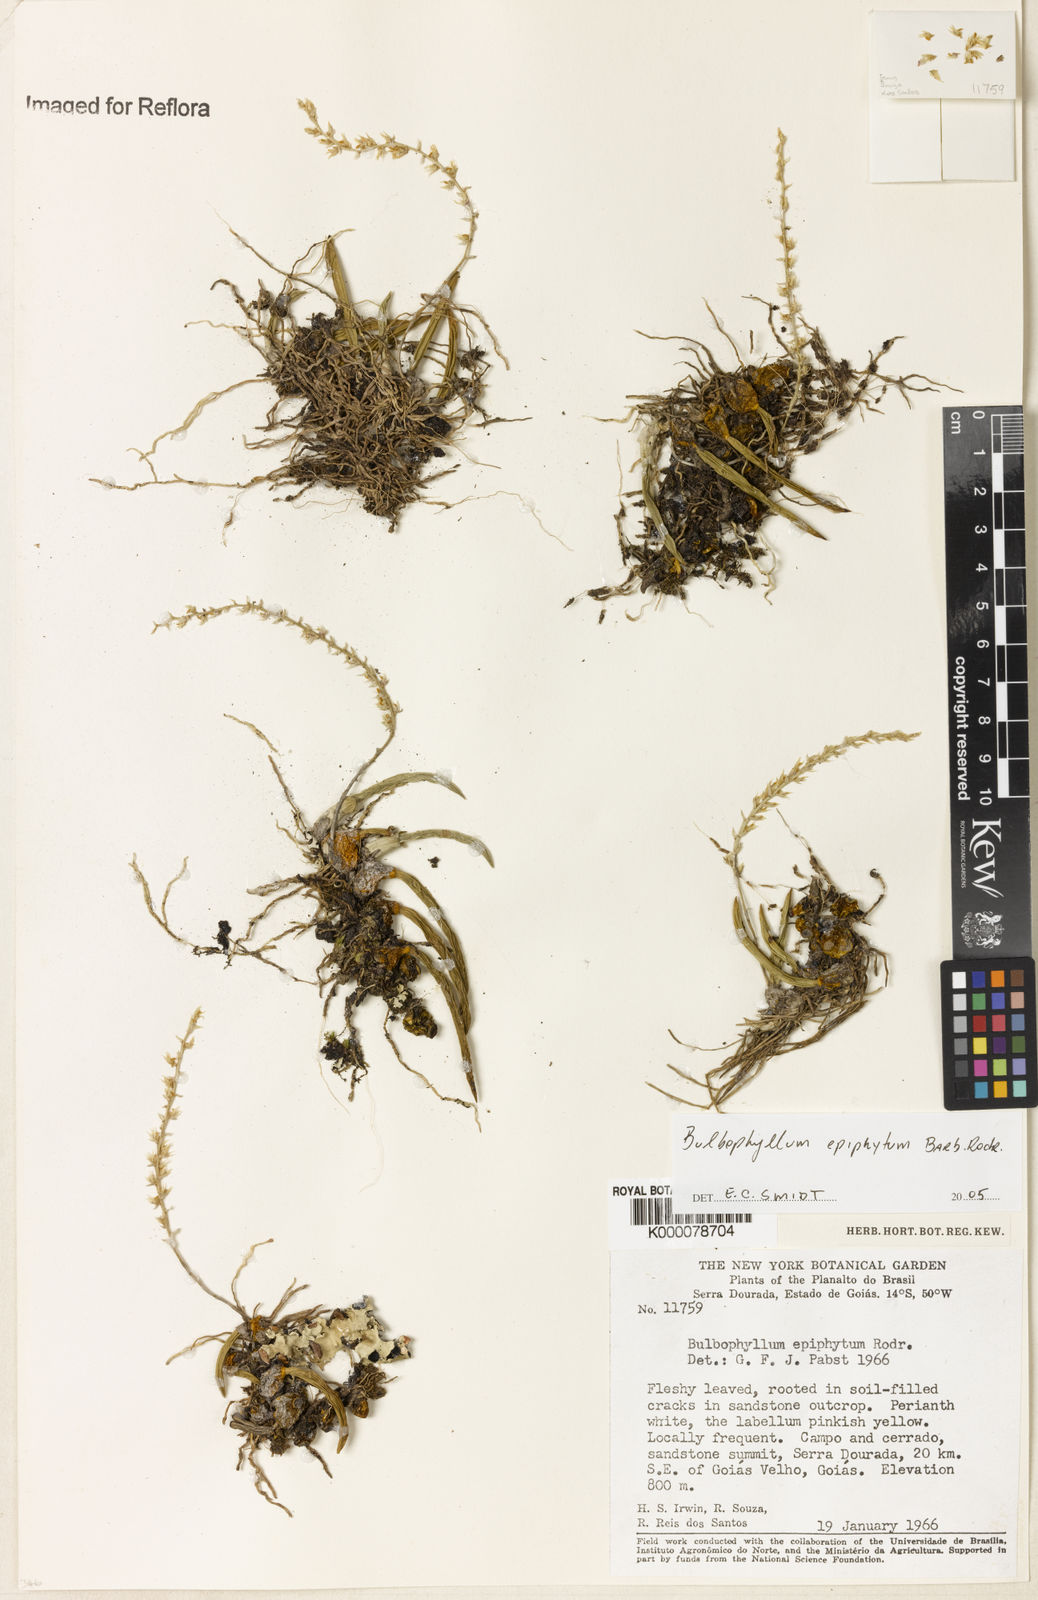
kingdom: Plantae
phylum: Tracheophyta
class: Liliopsida
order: Asparagales
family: Orchidaceae
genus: Bulbophyllum
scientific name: Bulbophyllum epiphytum
